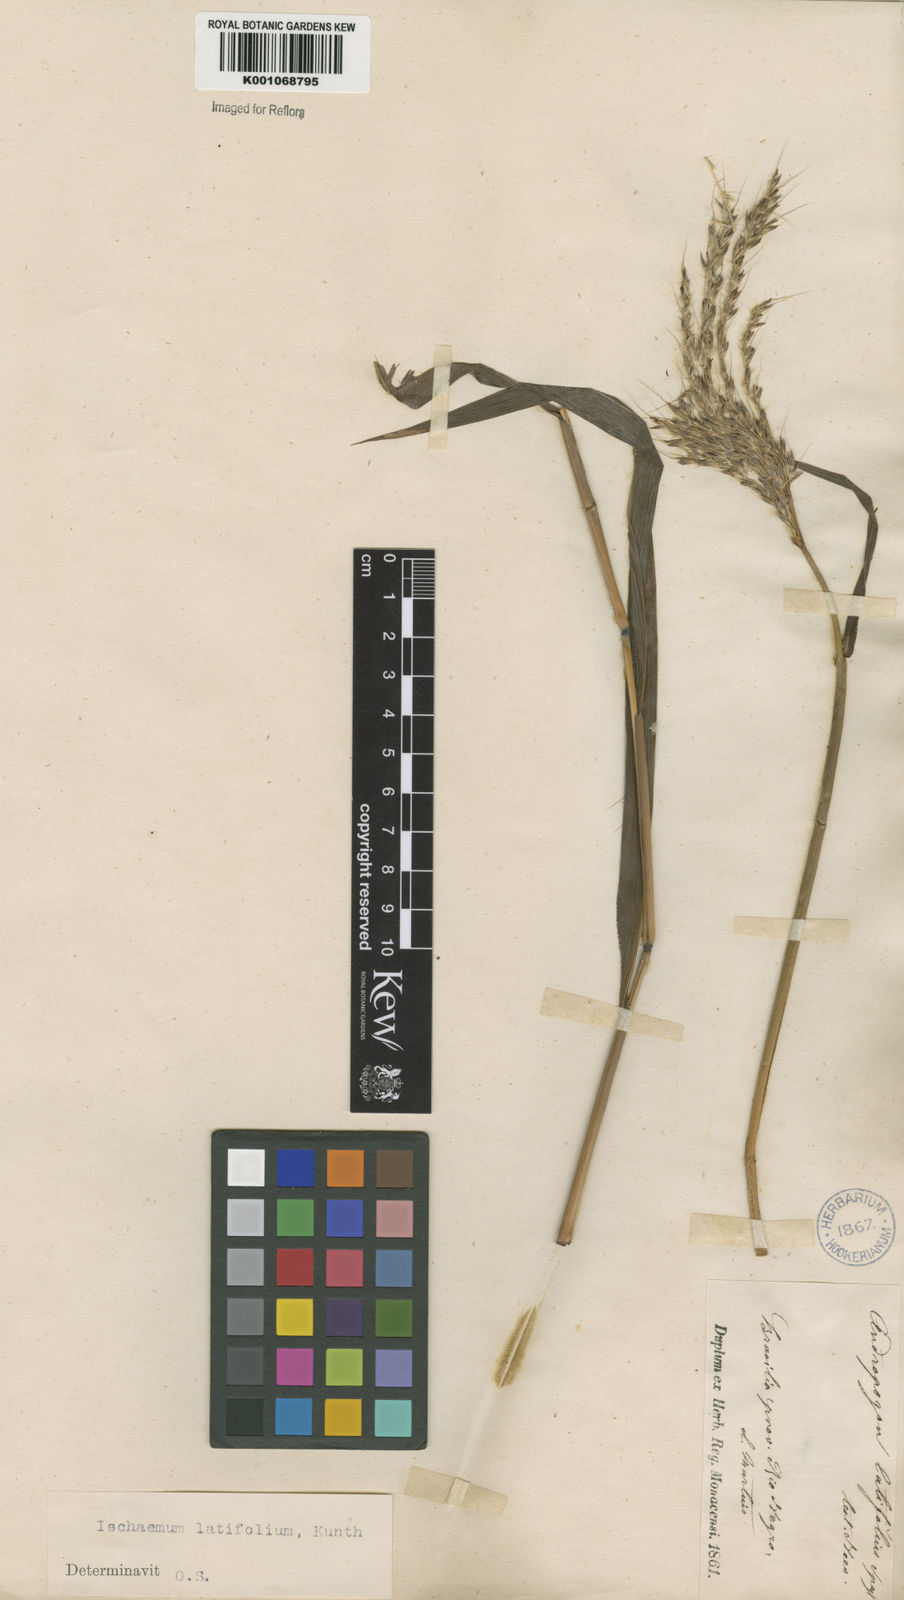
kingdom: Plantae
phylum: Tracheophyta
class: Liliopsida
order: Poales
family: Poaceae
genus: Ischaemum
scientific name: Ischaemum latifolium
